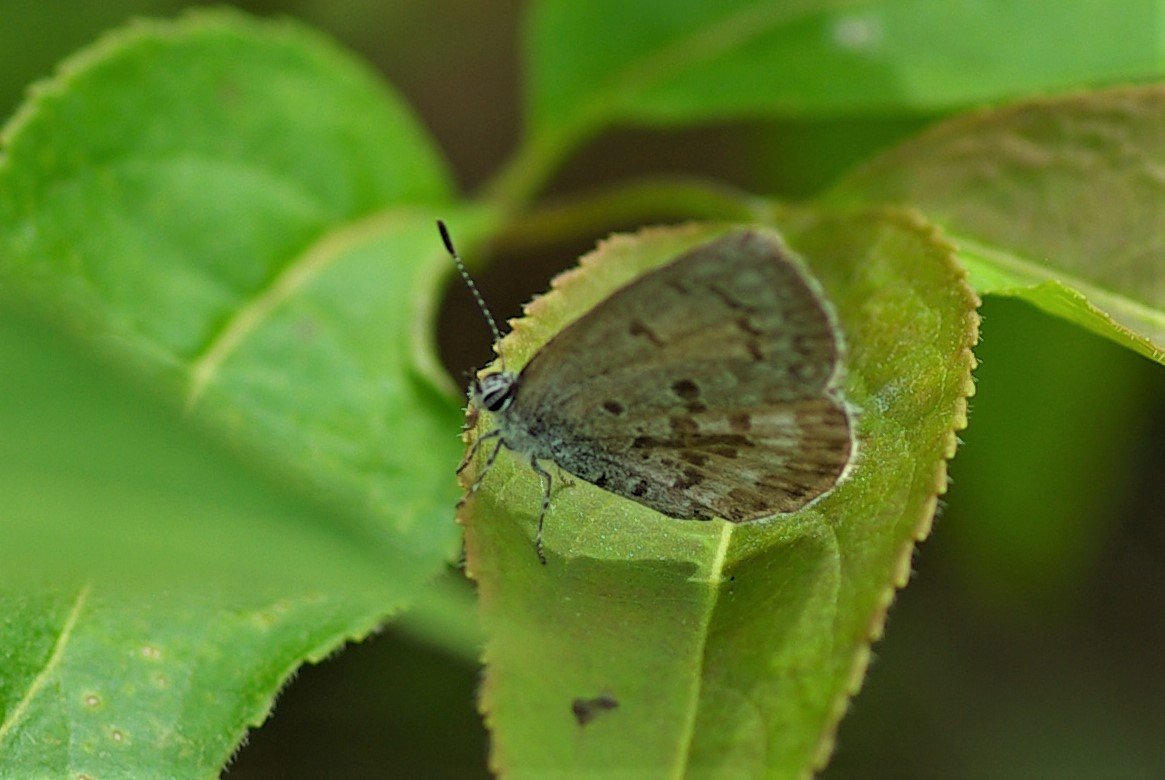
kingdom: Animalia
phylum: Arthropoda
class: Insecta
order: Lepidoptera
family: Lycaenidae
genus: Celastrina
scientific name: Celastrina lucia
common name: Northern Spring Azure
